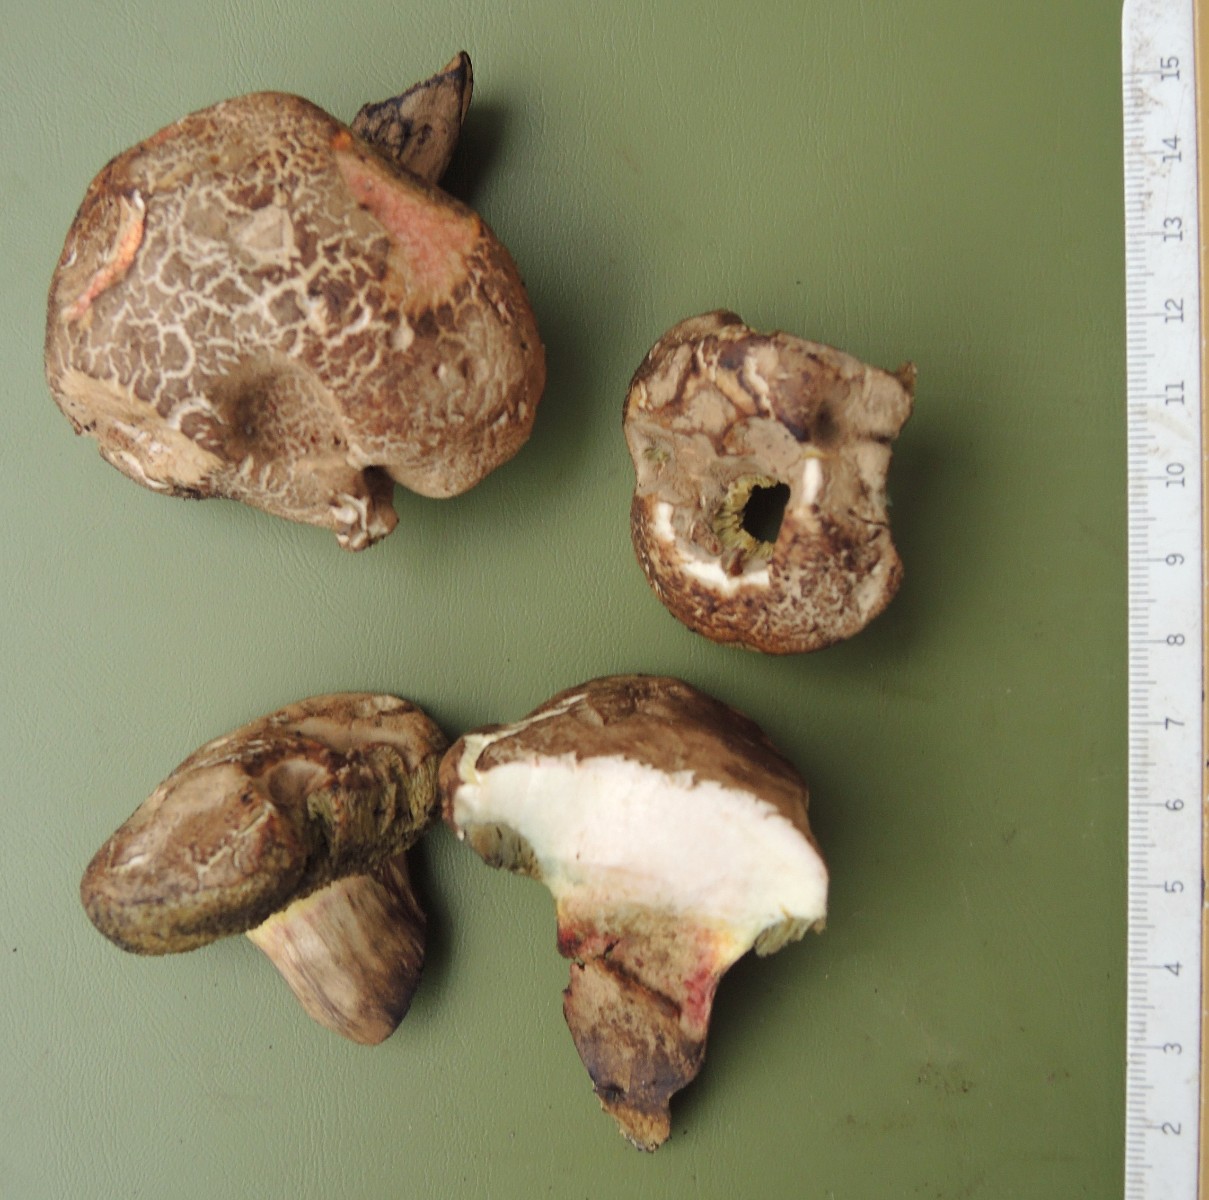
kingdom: Fungi
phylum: Basidiomycota
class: Agaricomycetes
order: Boletales
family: Boletaceae
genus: Xerocomellus
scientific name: Xerocomellus porosporus
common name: hvidsprukken rørhat
